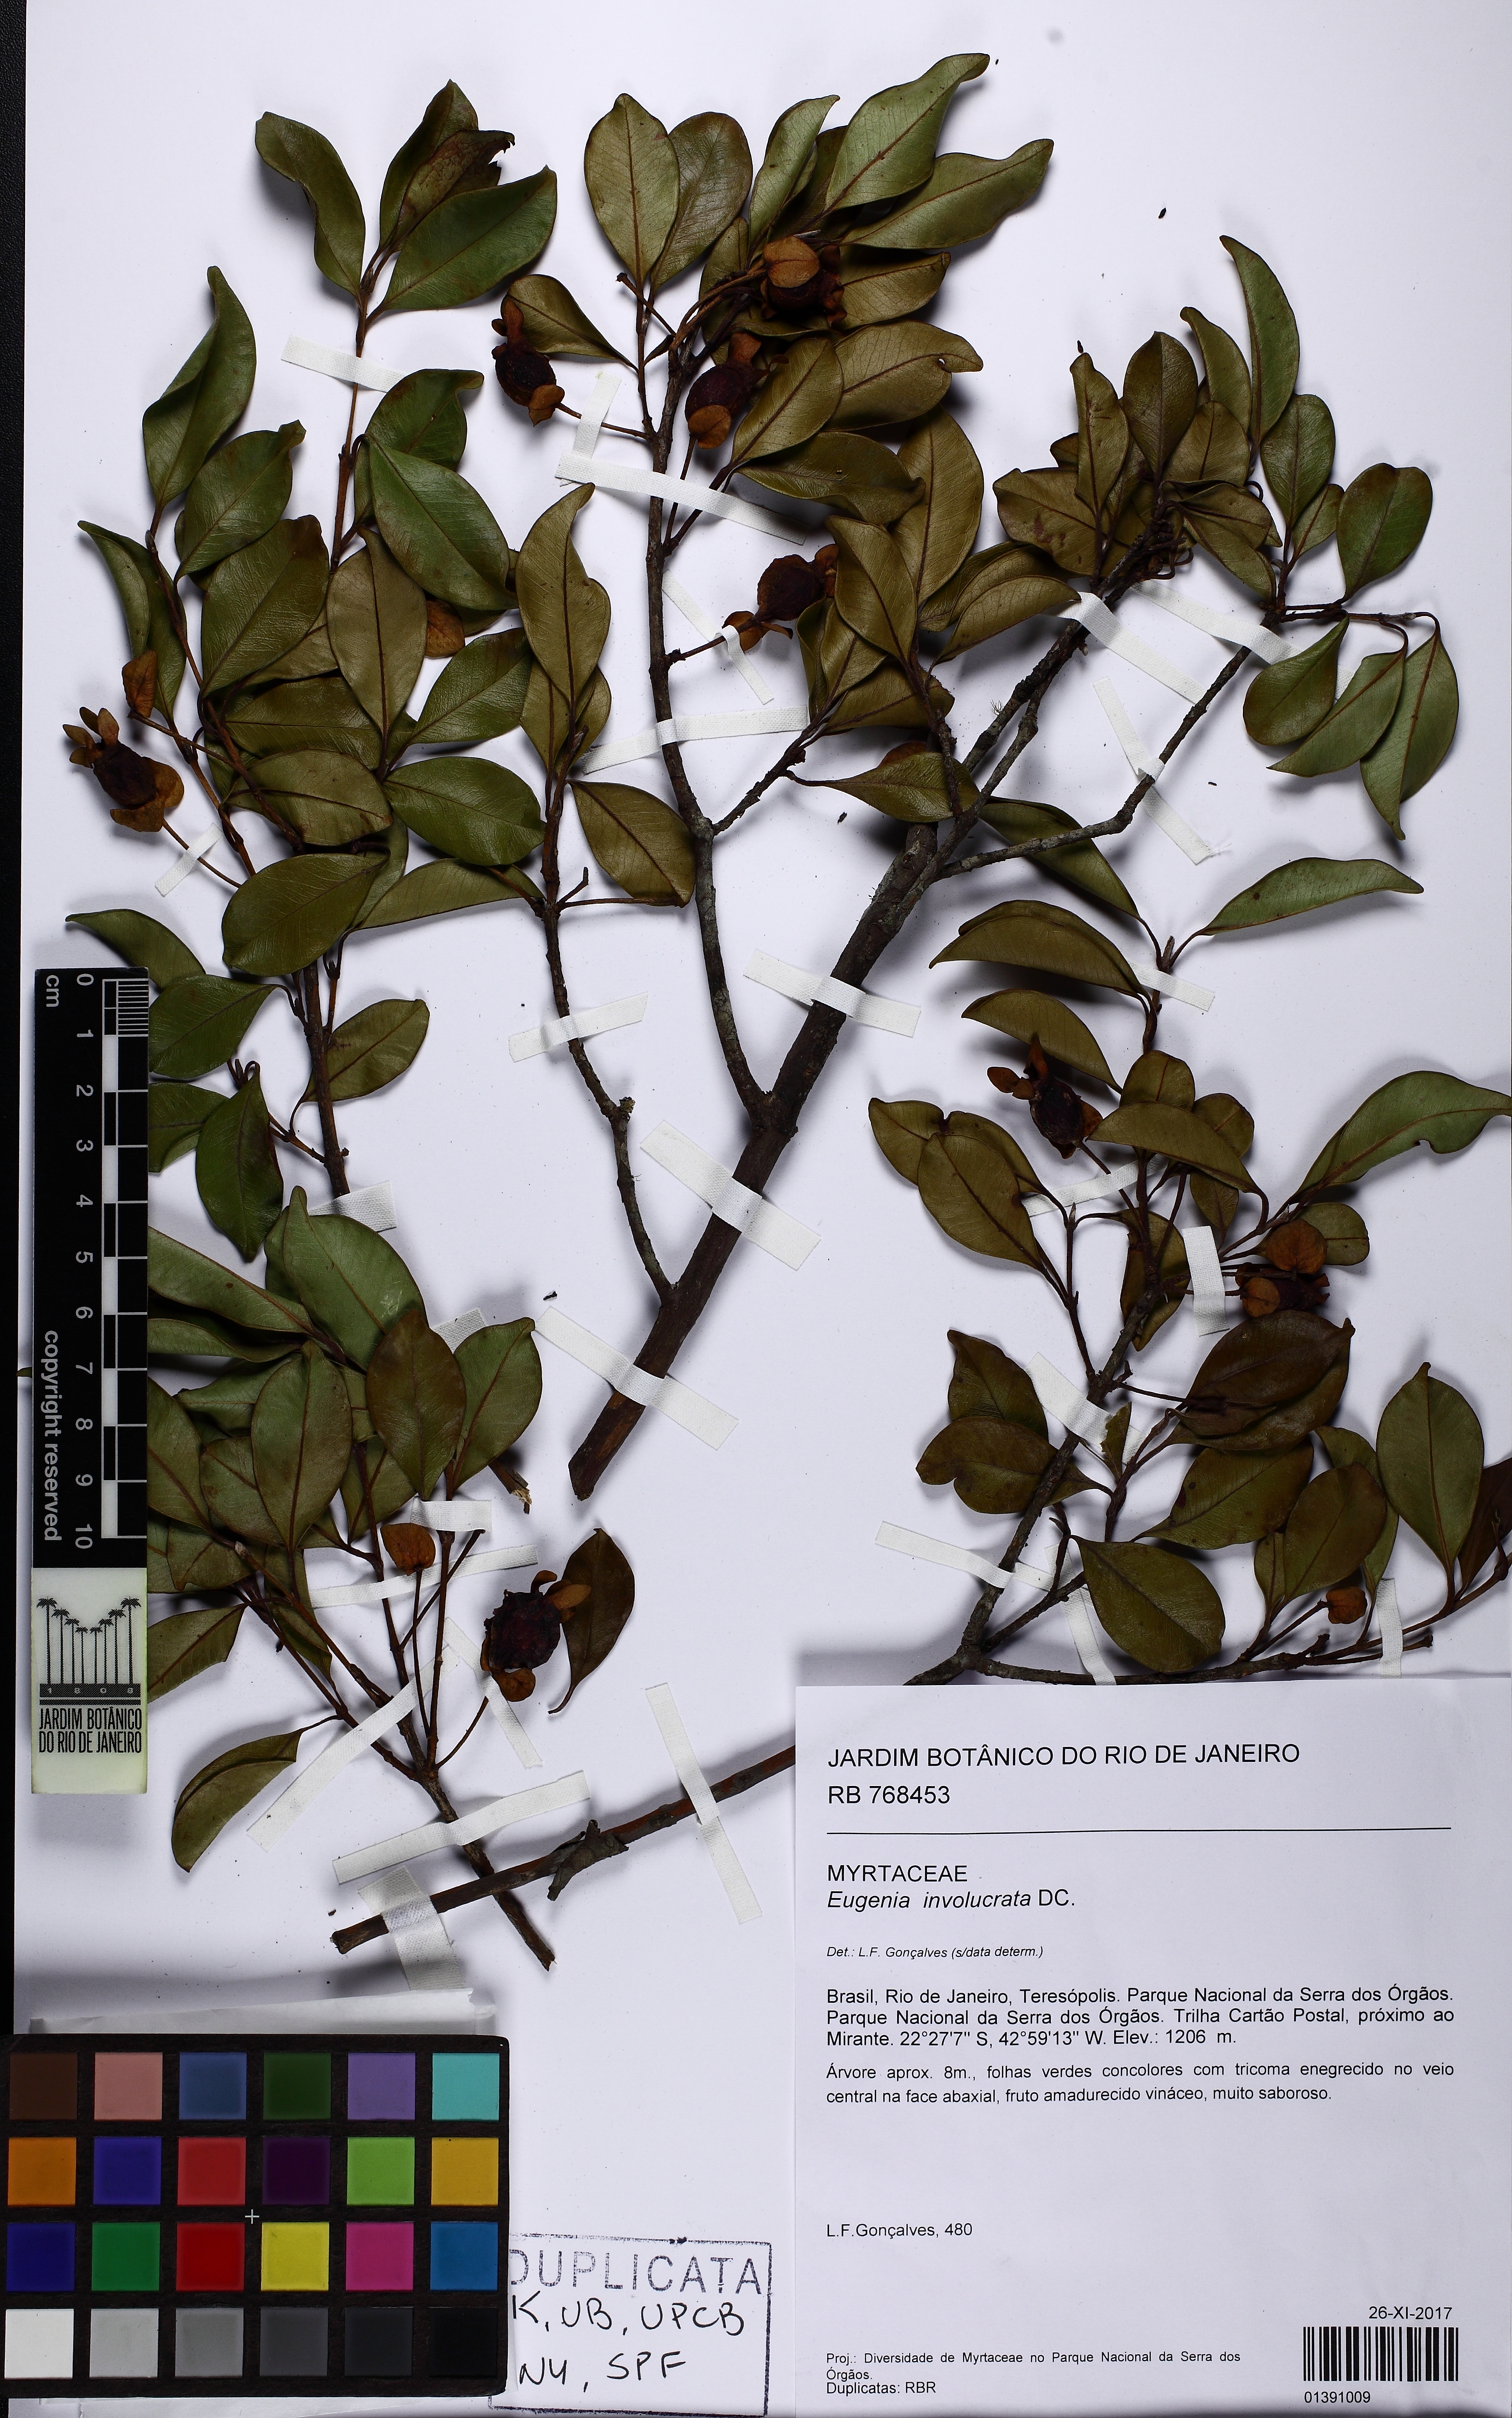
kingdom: Plantae
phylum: Tracheophyta
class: Magnoliopsida
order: Myrtales
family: Myrtaceae
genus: Eugenia
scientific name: Eugenia involucrata
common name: Cherry-of-the-rio grande
